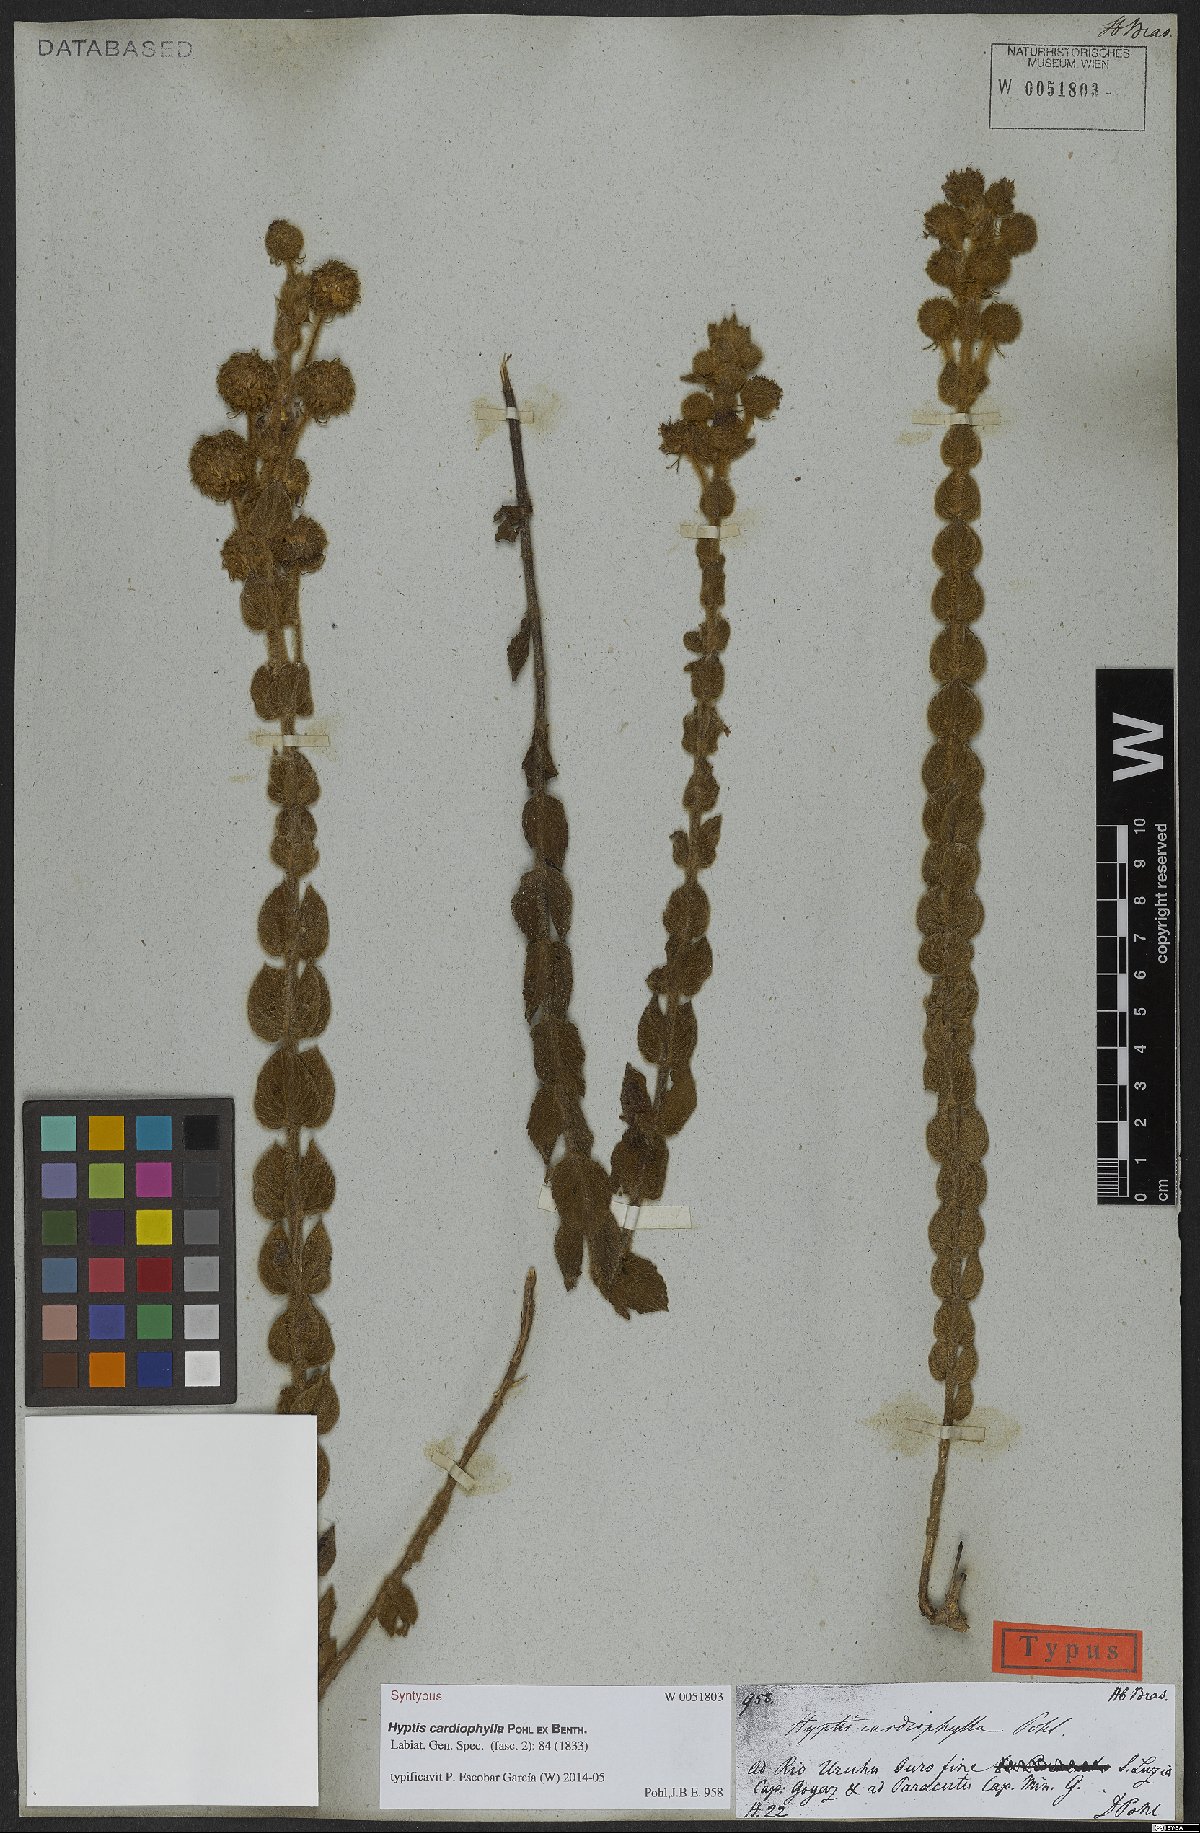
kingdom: Plantae
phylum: Tracheophyta
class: Magnoliopsida
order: Lamiales
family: Lamiaceae
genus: Cyanocephalus
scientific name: Cyanocephalus cardiophyllus
